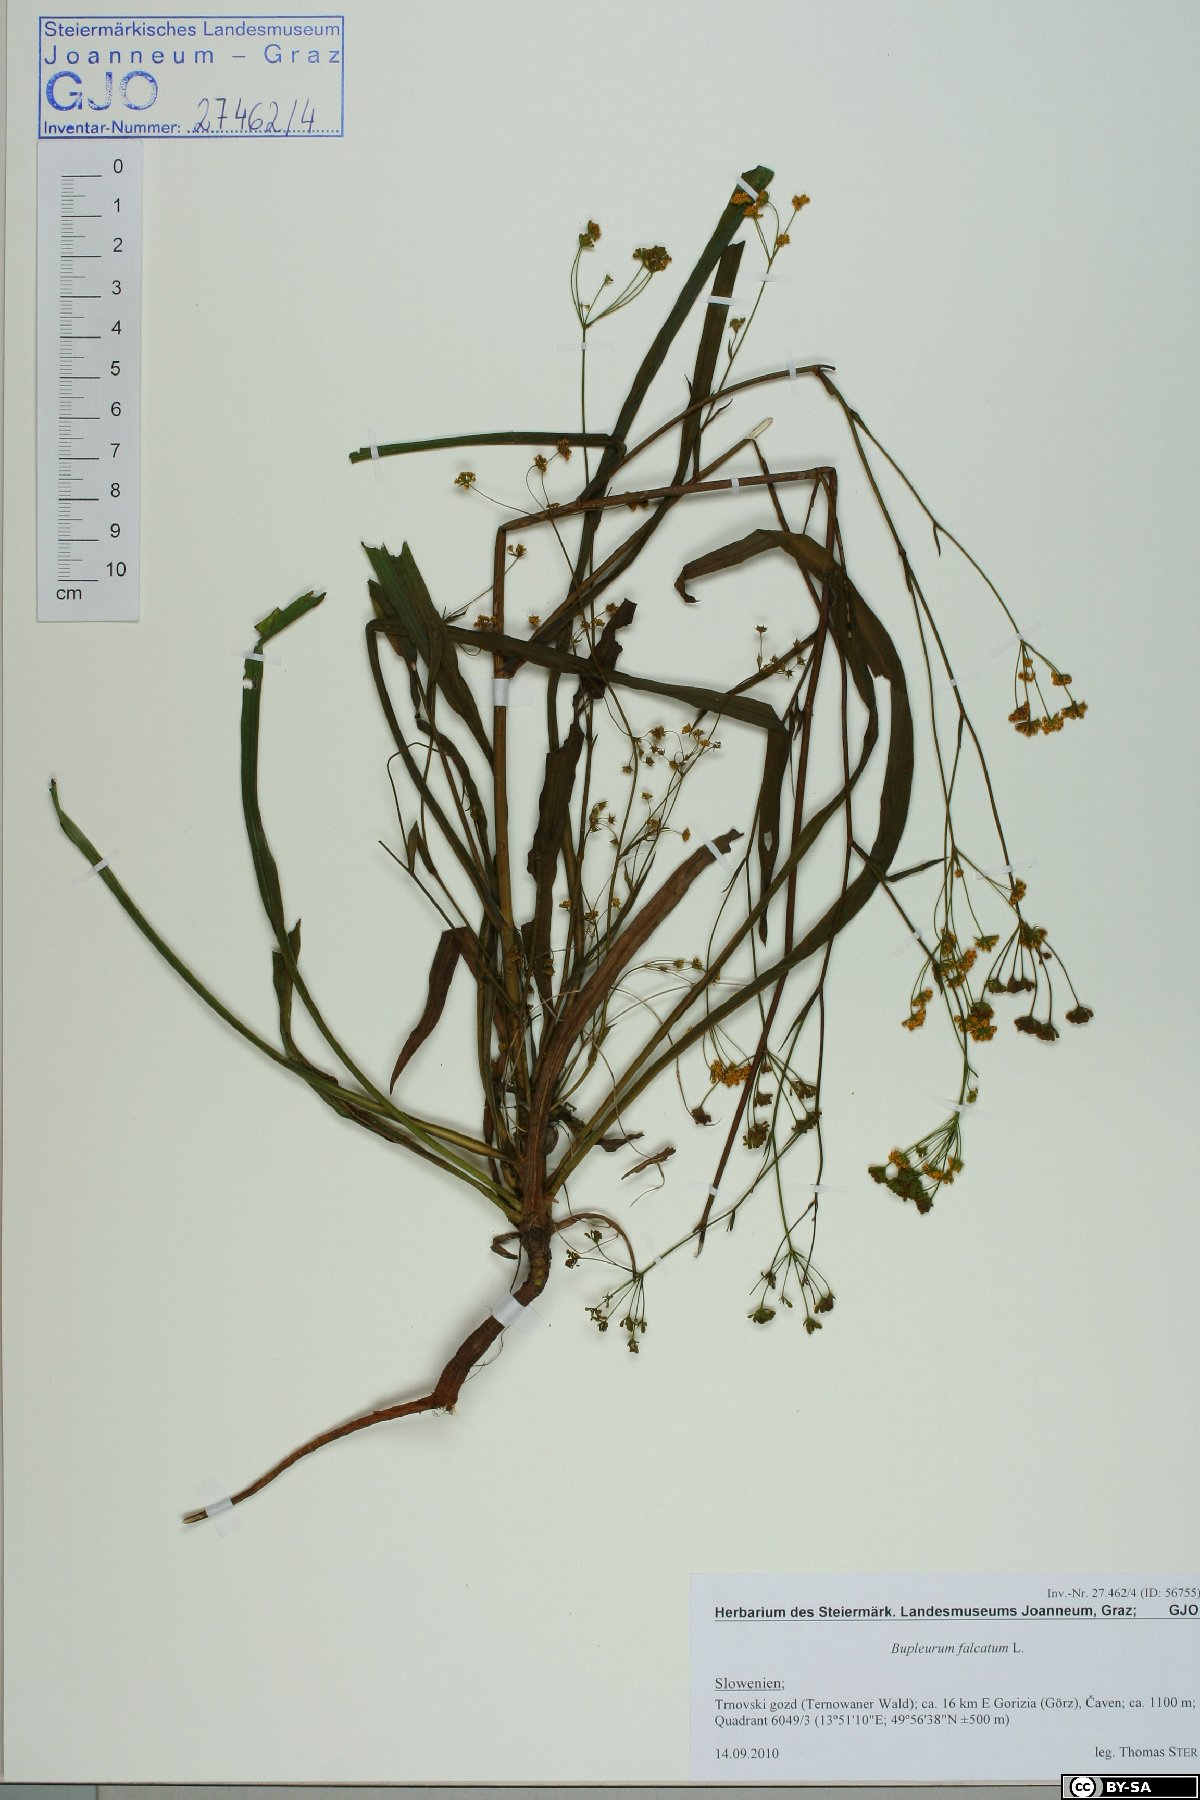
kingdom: Plantae
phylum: Tracheophyta
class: Magnoliopsida
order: Apiales
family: Apiaceae
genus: Bupleurum
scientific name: Bupleurum falcatum
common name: Sickle-leaved hare's-ear
